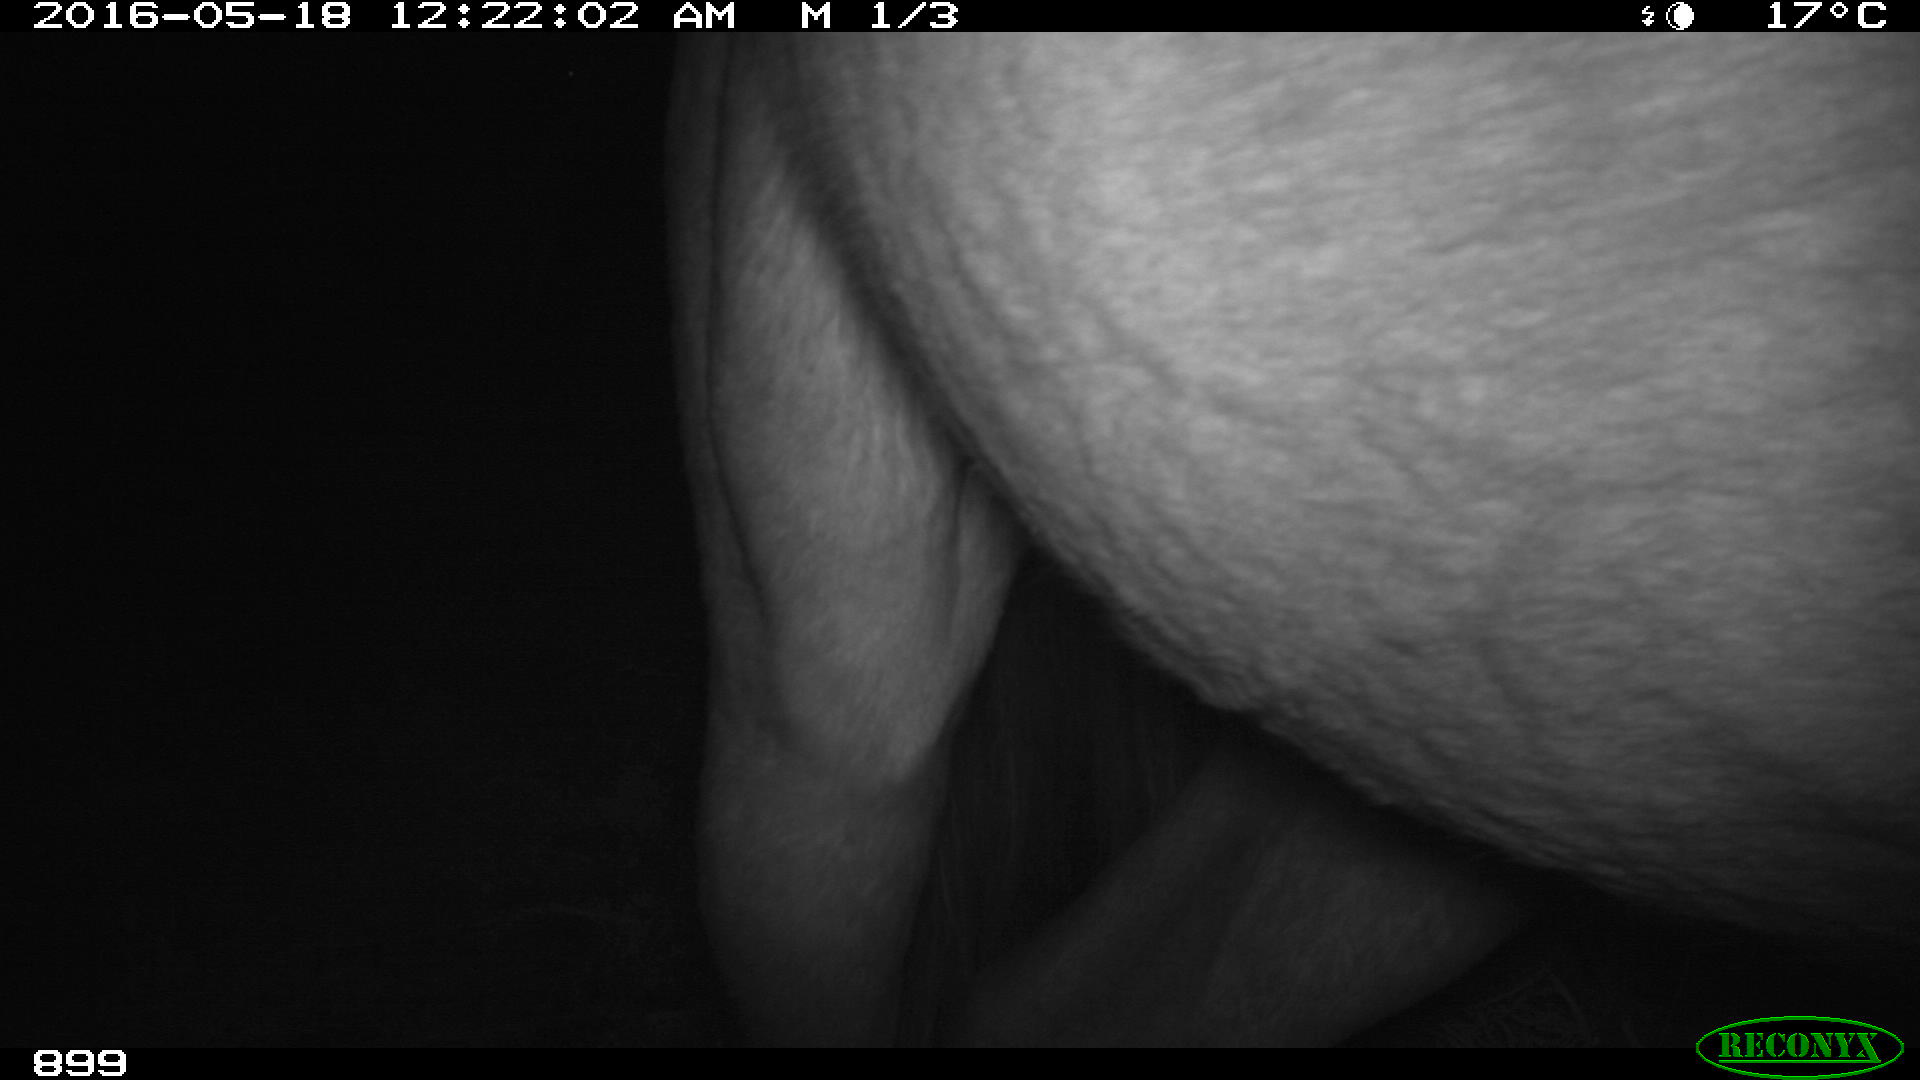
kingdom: Animalia
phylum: Chordata
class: Mammalia
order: Perissodactyla
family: Equidae
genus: Equus
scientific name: Equus caballus
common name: Horse
